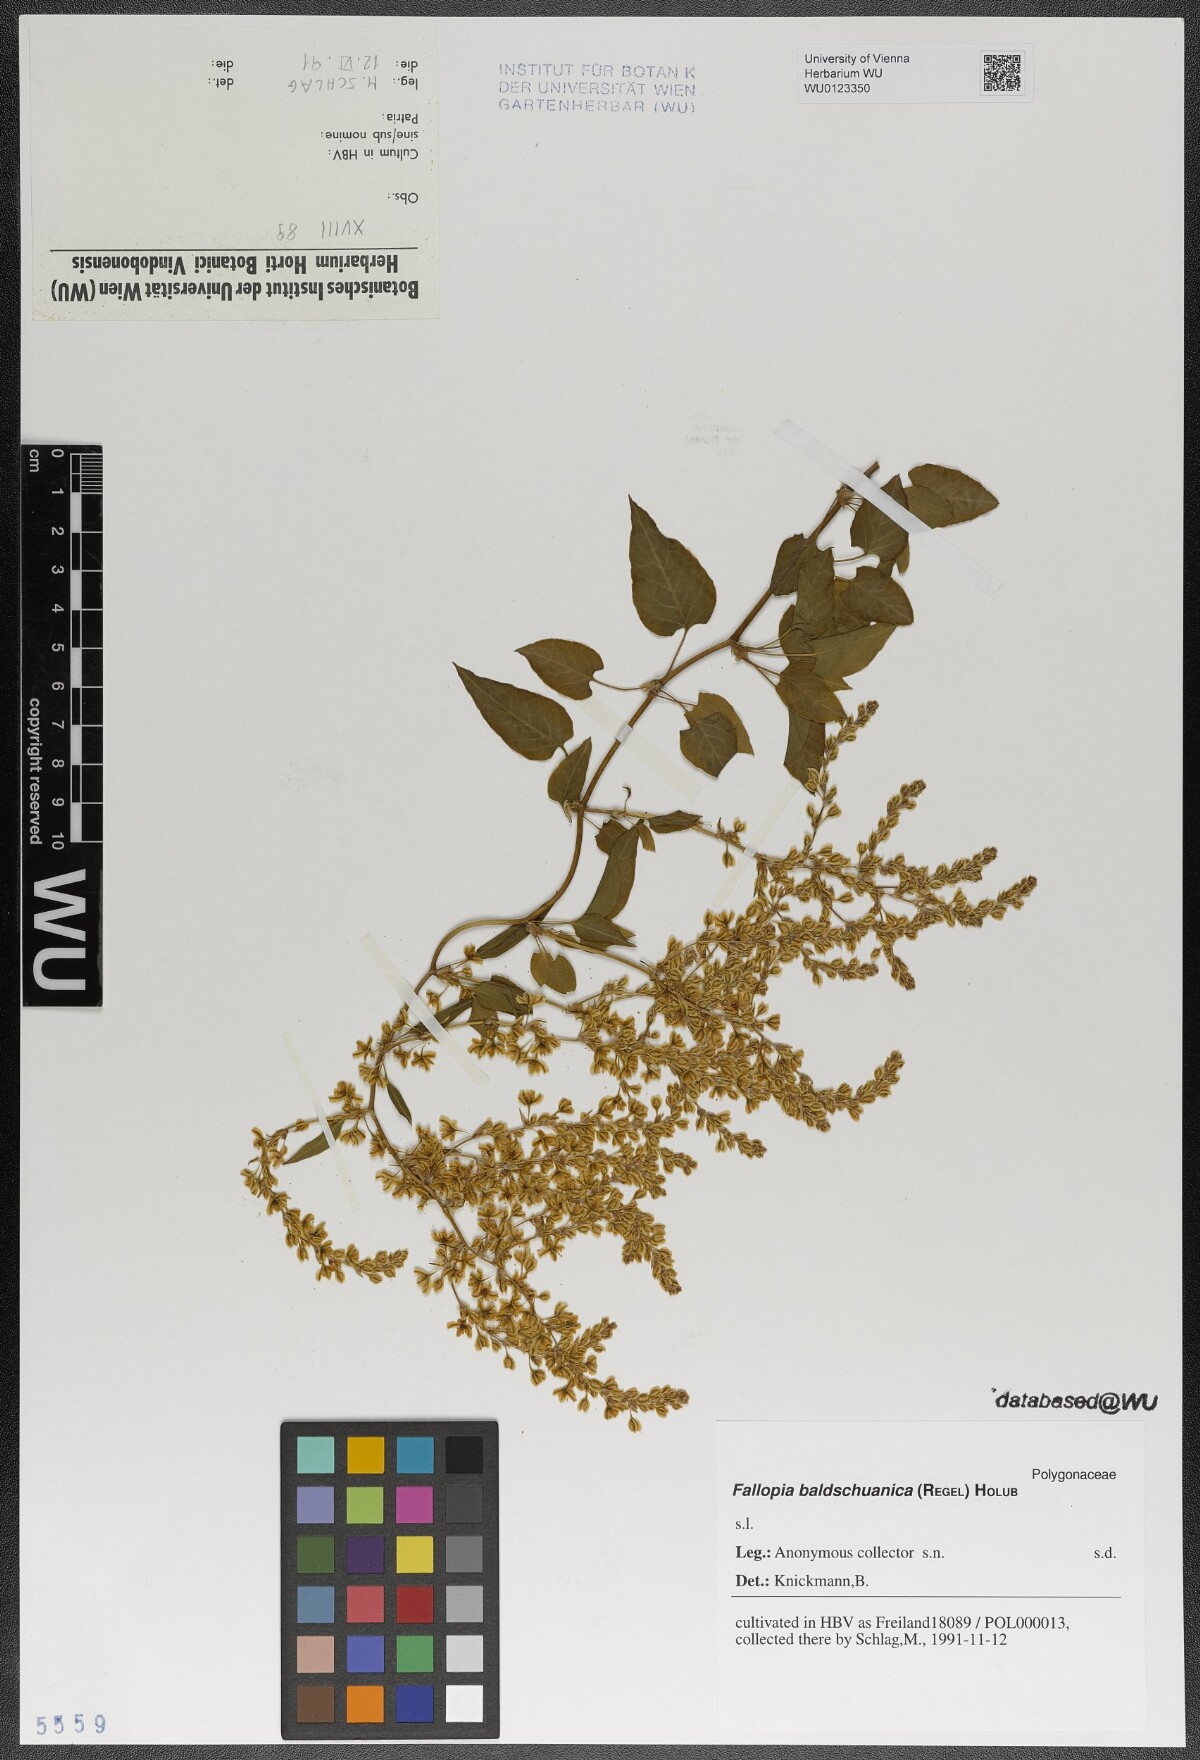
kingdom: Plantae
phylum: Tracheophyta
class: Magnoliopsida
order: Caryophyllales
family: Polygonaceae
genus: Fallopia
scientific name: Fallopia baldschuanica
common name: Russian-vine
